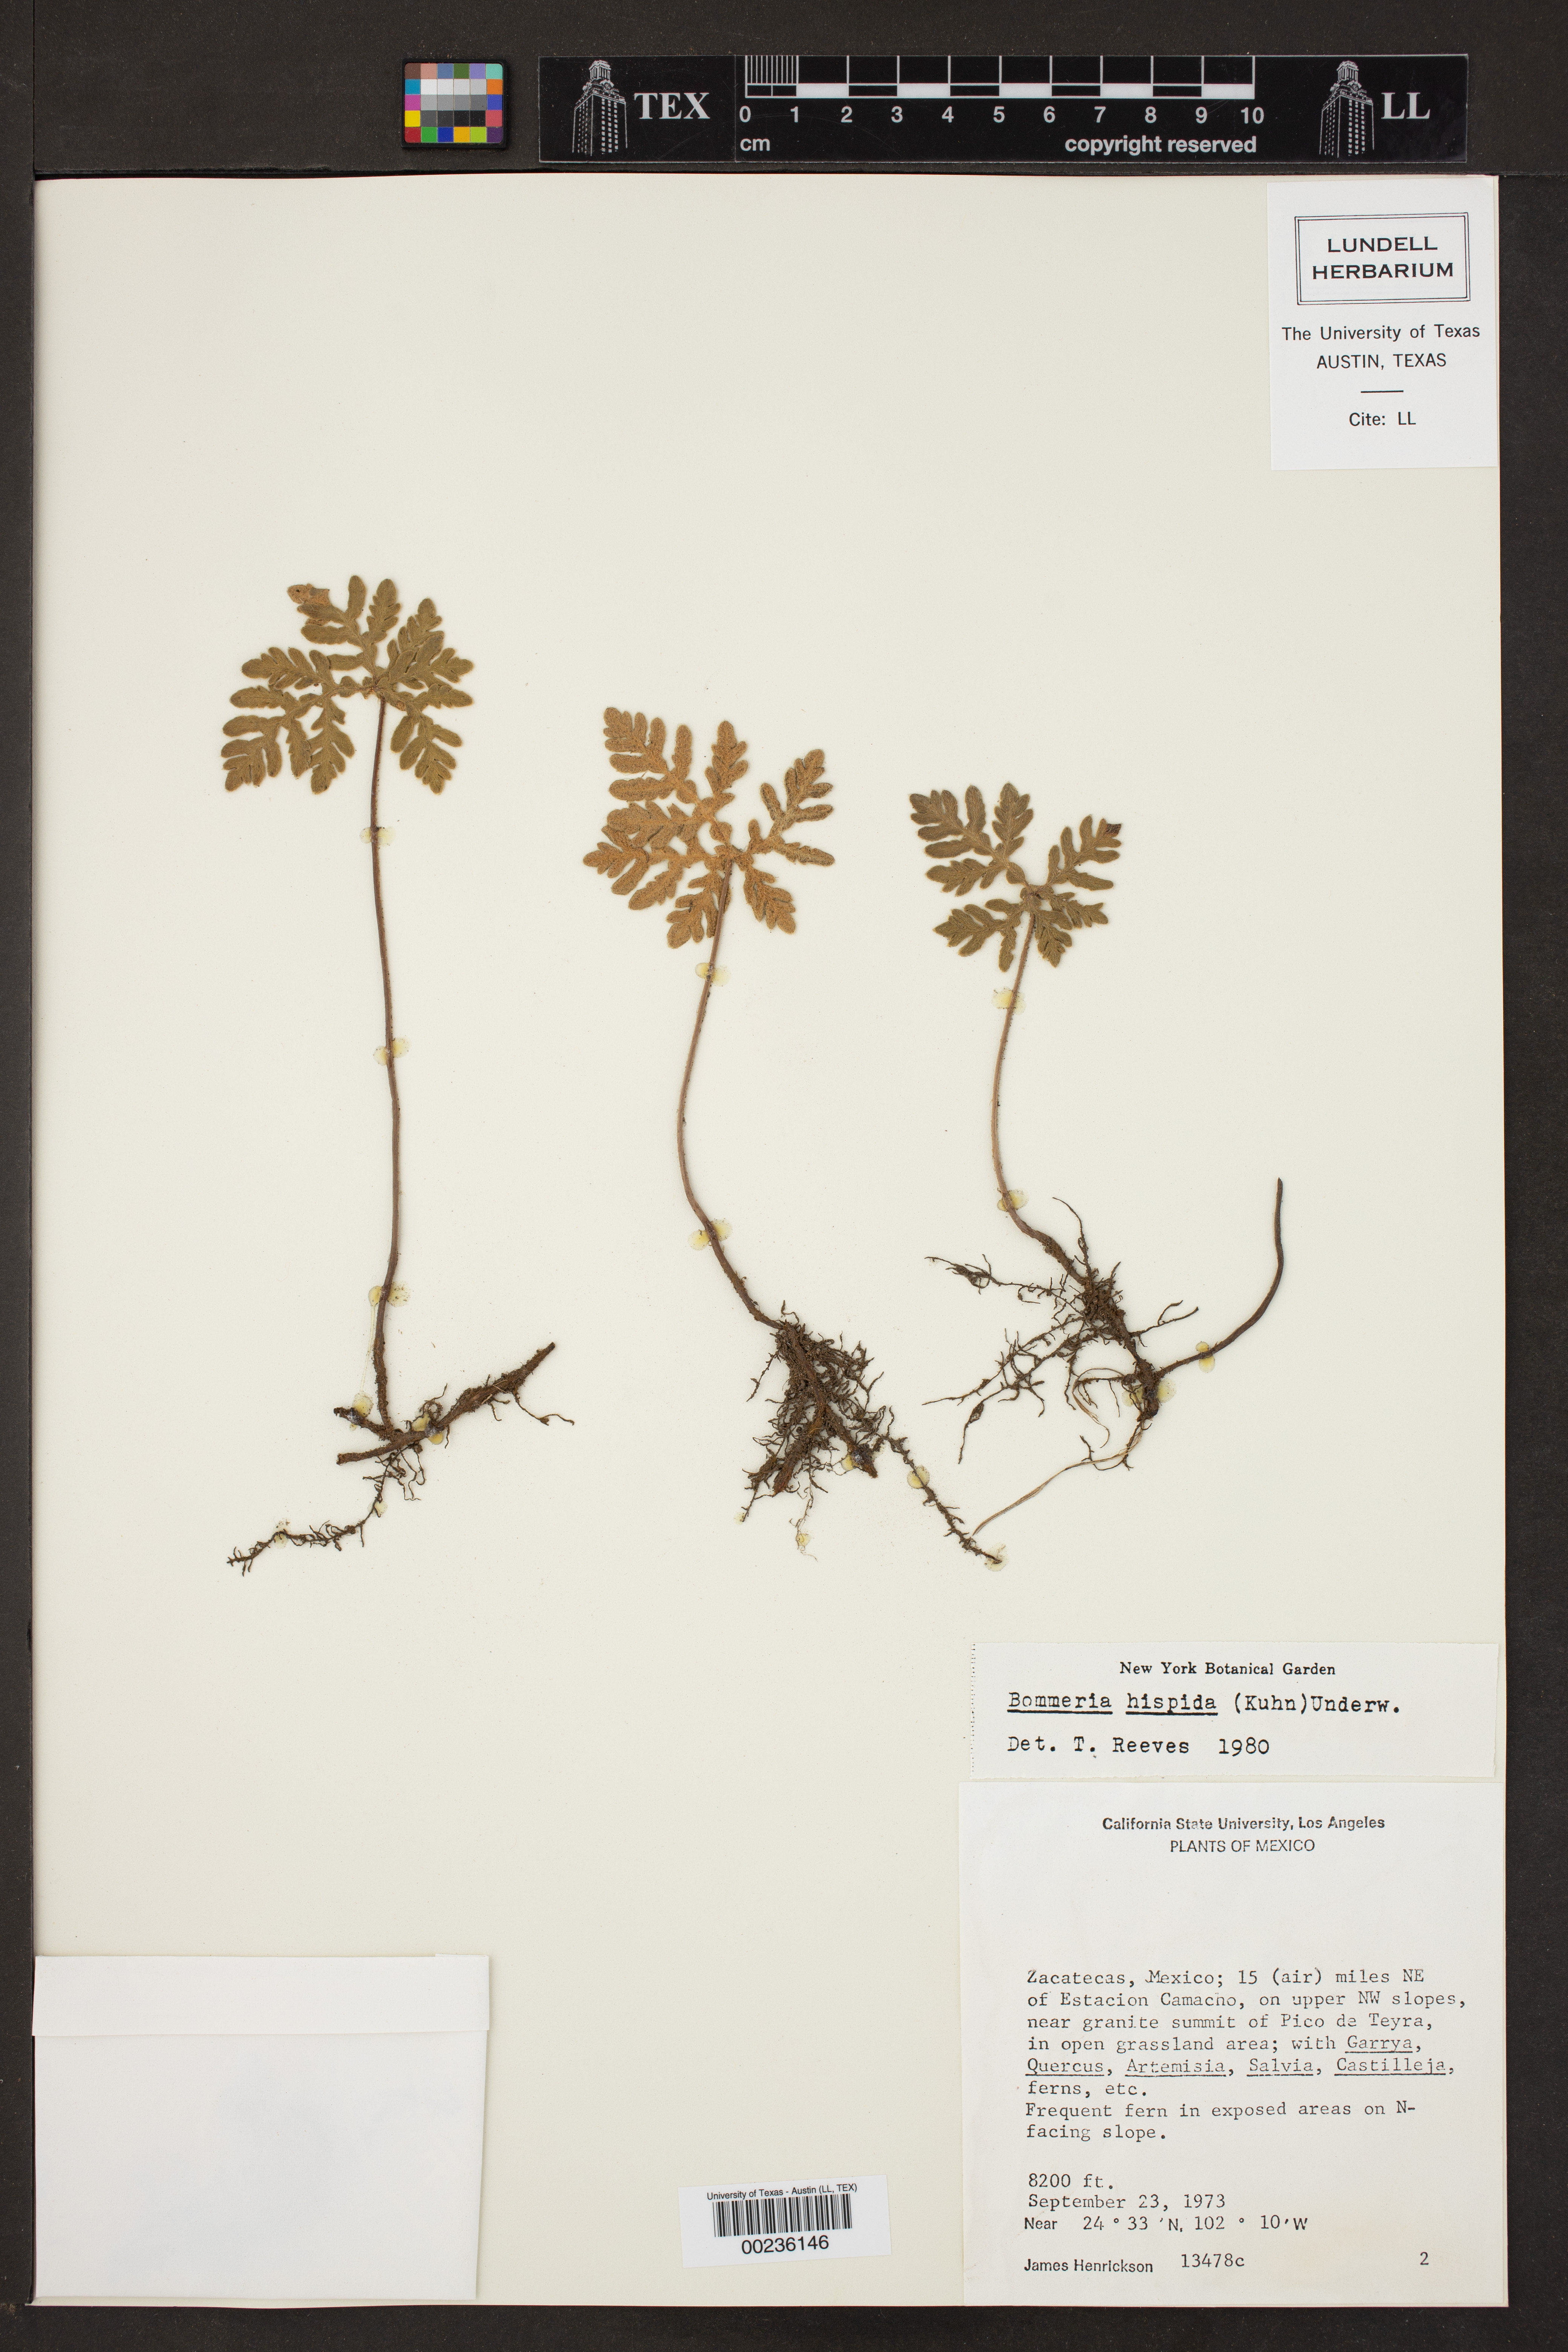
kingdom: Plantae
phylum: Tracheophyta
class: Polypodiopsida
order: Polypodiales
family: Pteridaceae
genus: Bommeria
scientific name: Bommeria hispida
